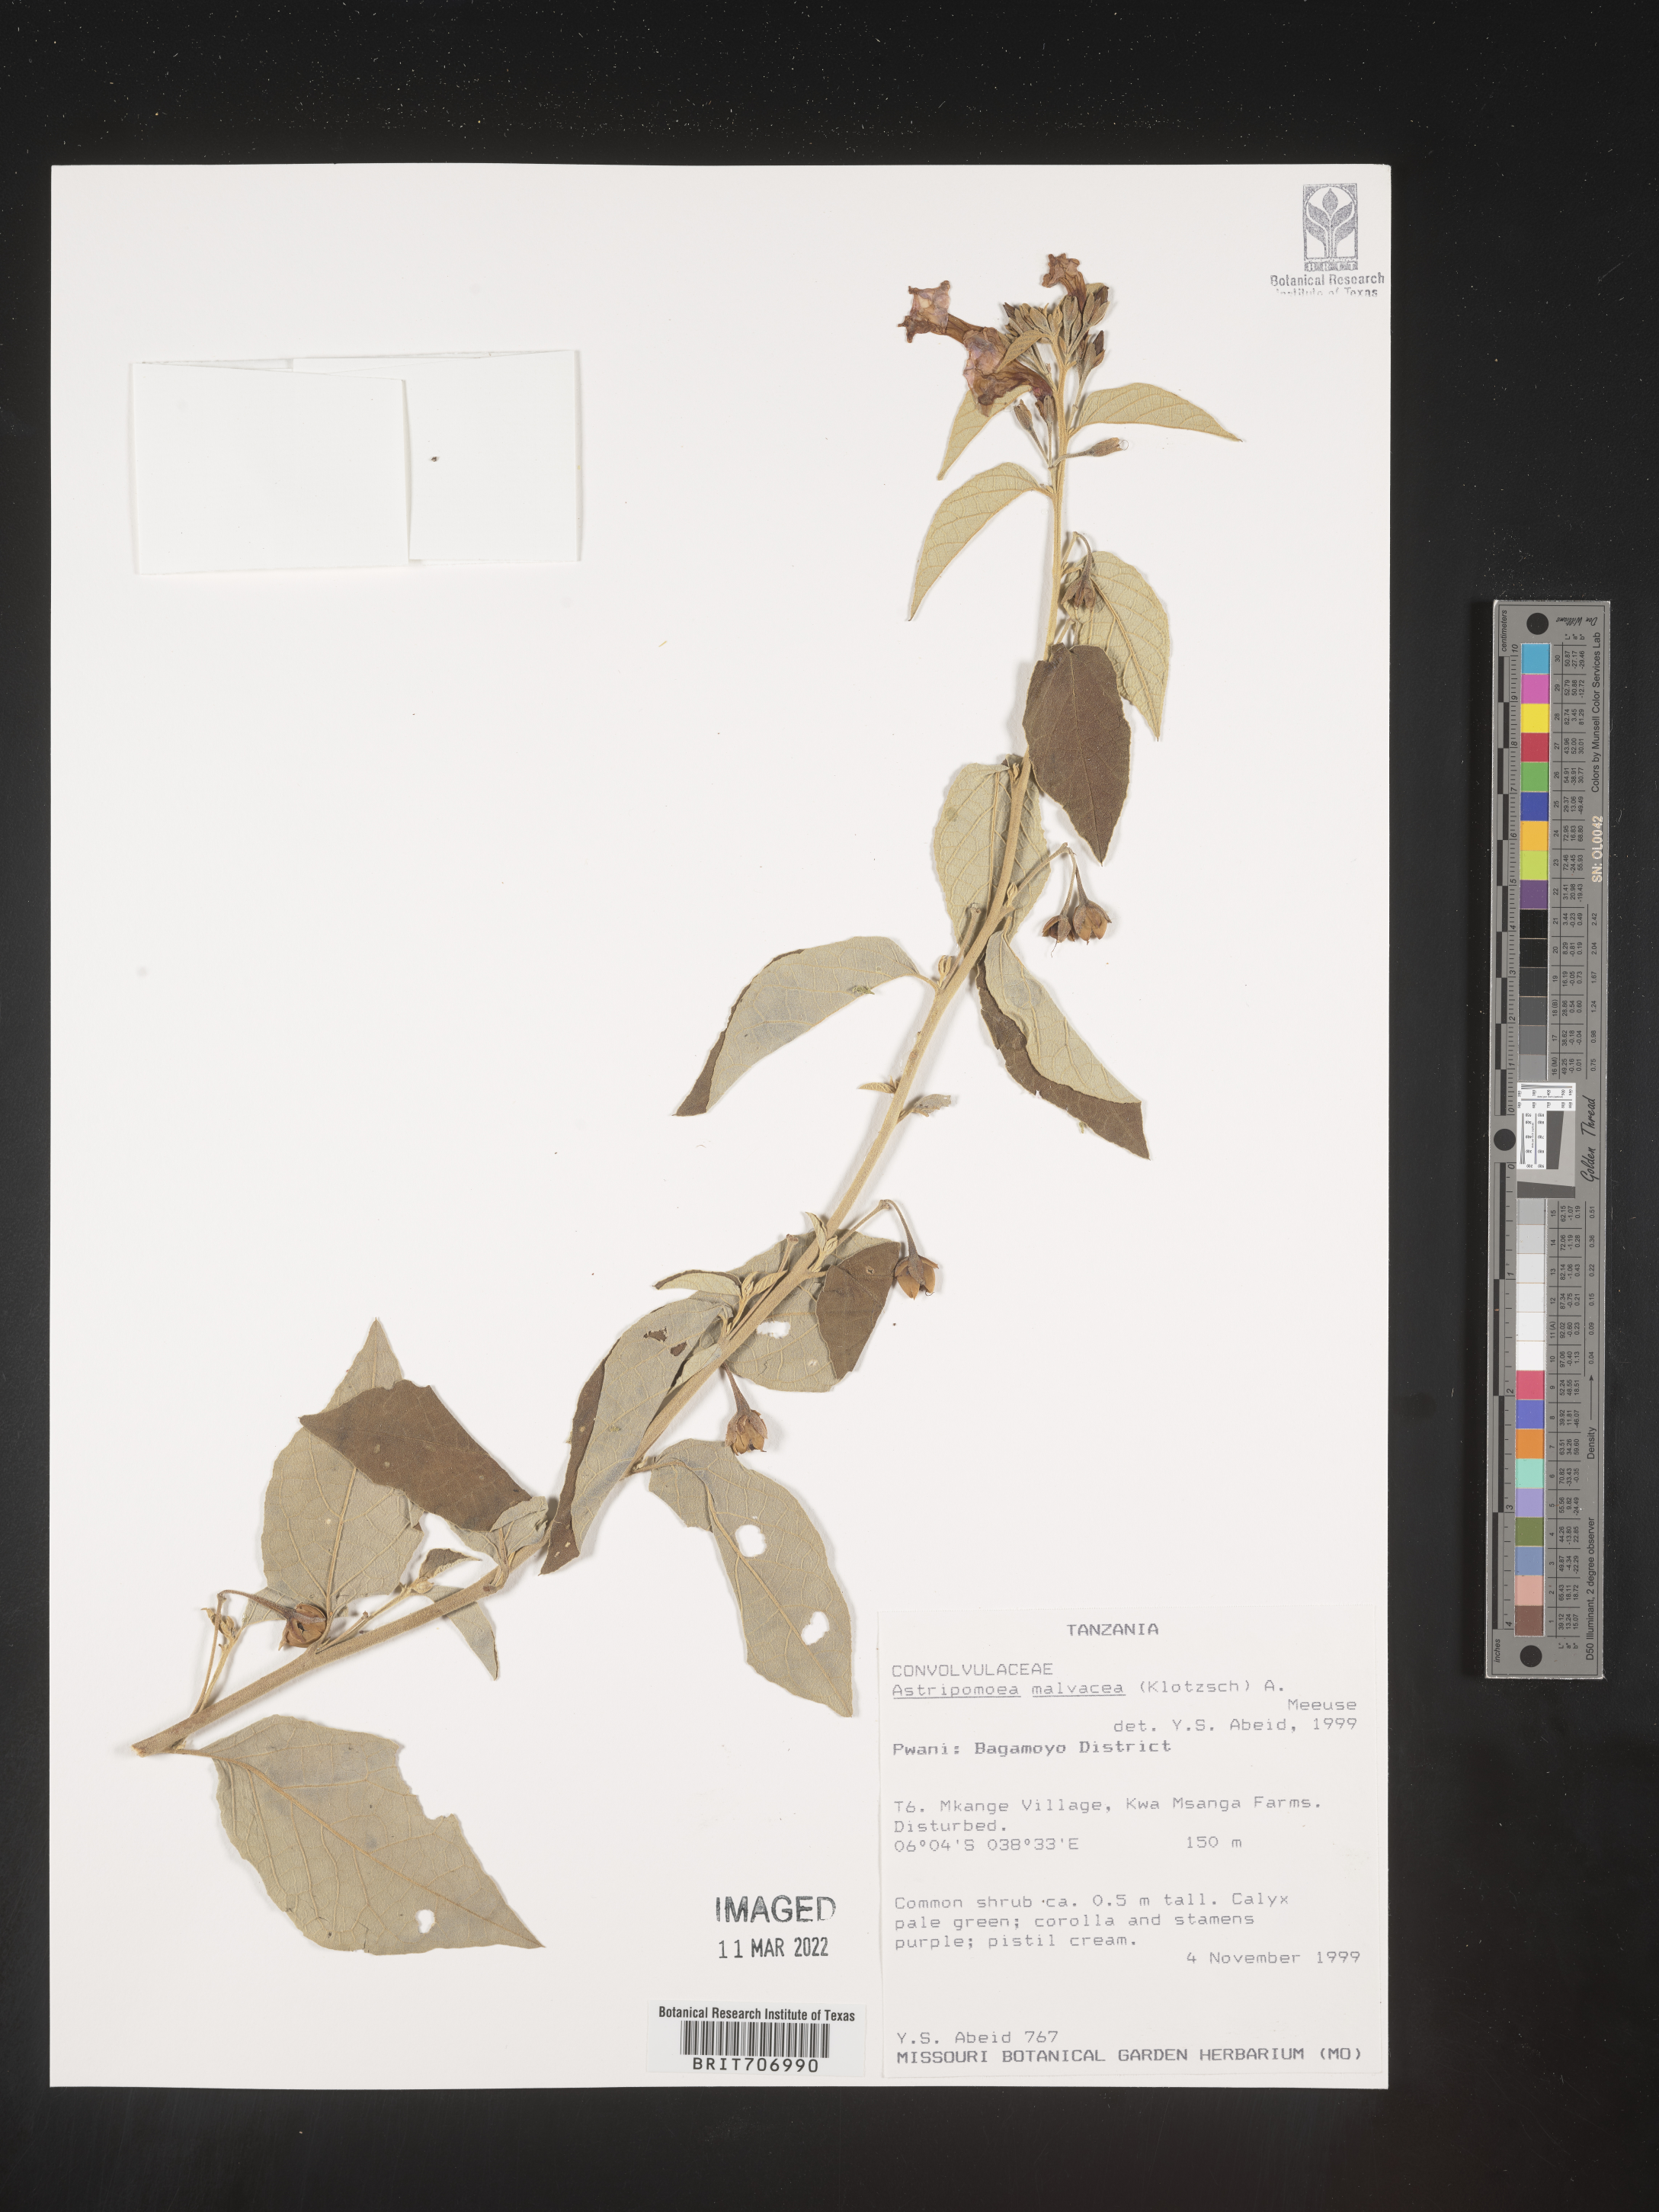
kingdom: Plantae
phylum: Tracheophyta
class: Magnoliopsida
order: Solanales
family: Convolvulaceae
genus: Astripomoea
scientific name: Astripomoea
